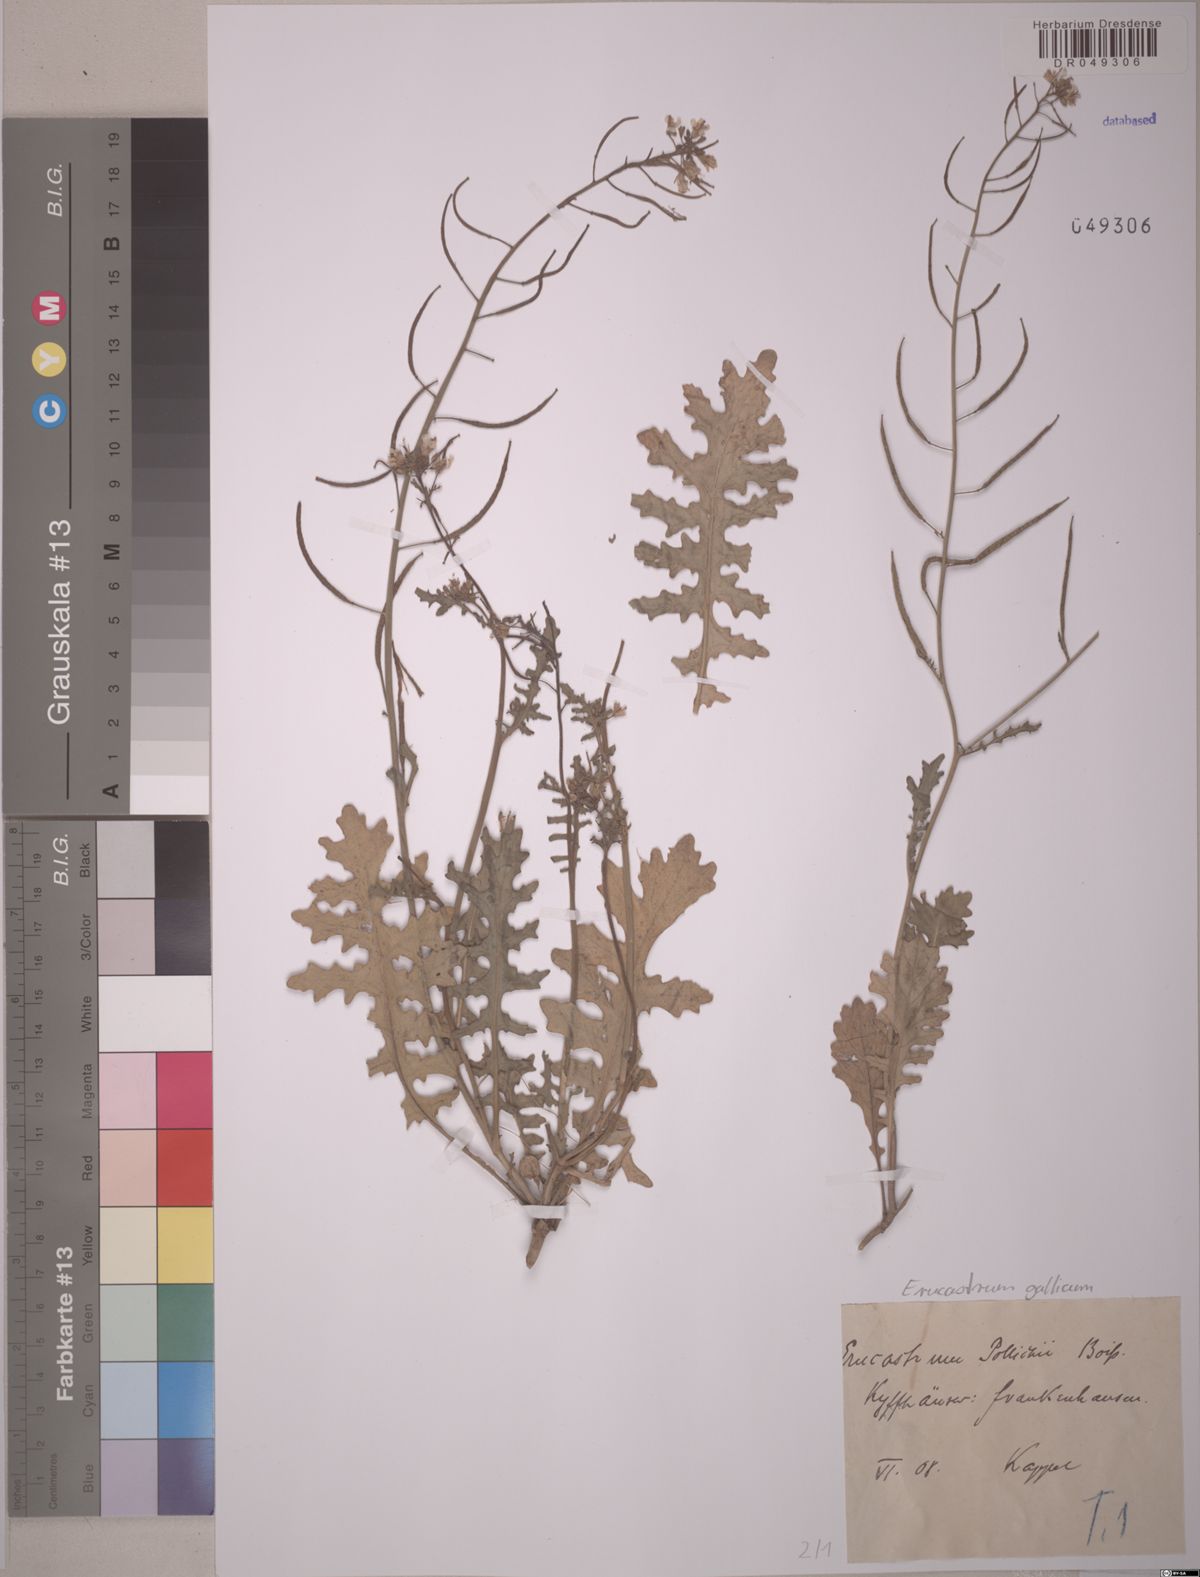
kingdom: Plantae
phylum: Tracheophyta
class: Magnoliopsida
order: Brassicales
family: Brassicaceae
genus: Erucastrum
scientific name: Erucastrum gallicum
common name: Hairy rocket
